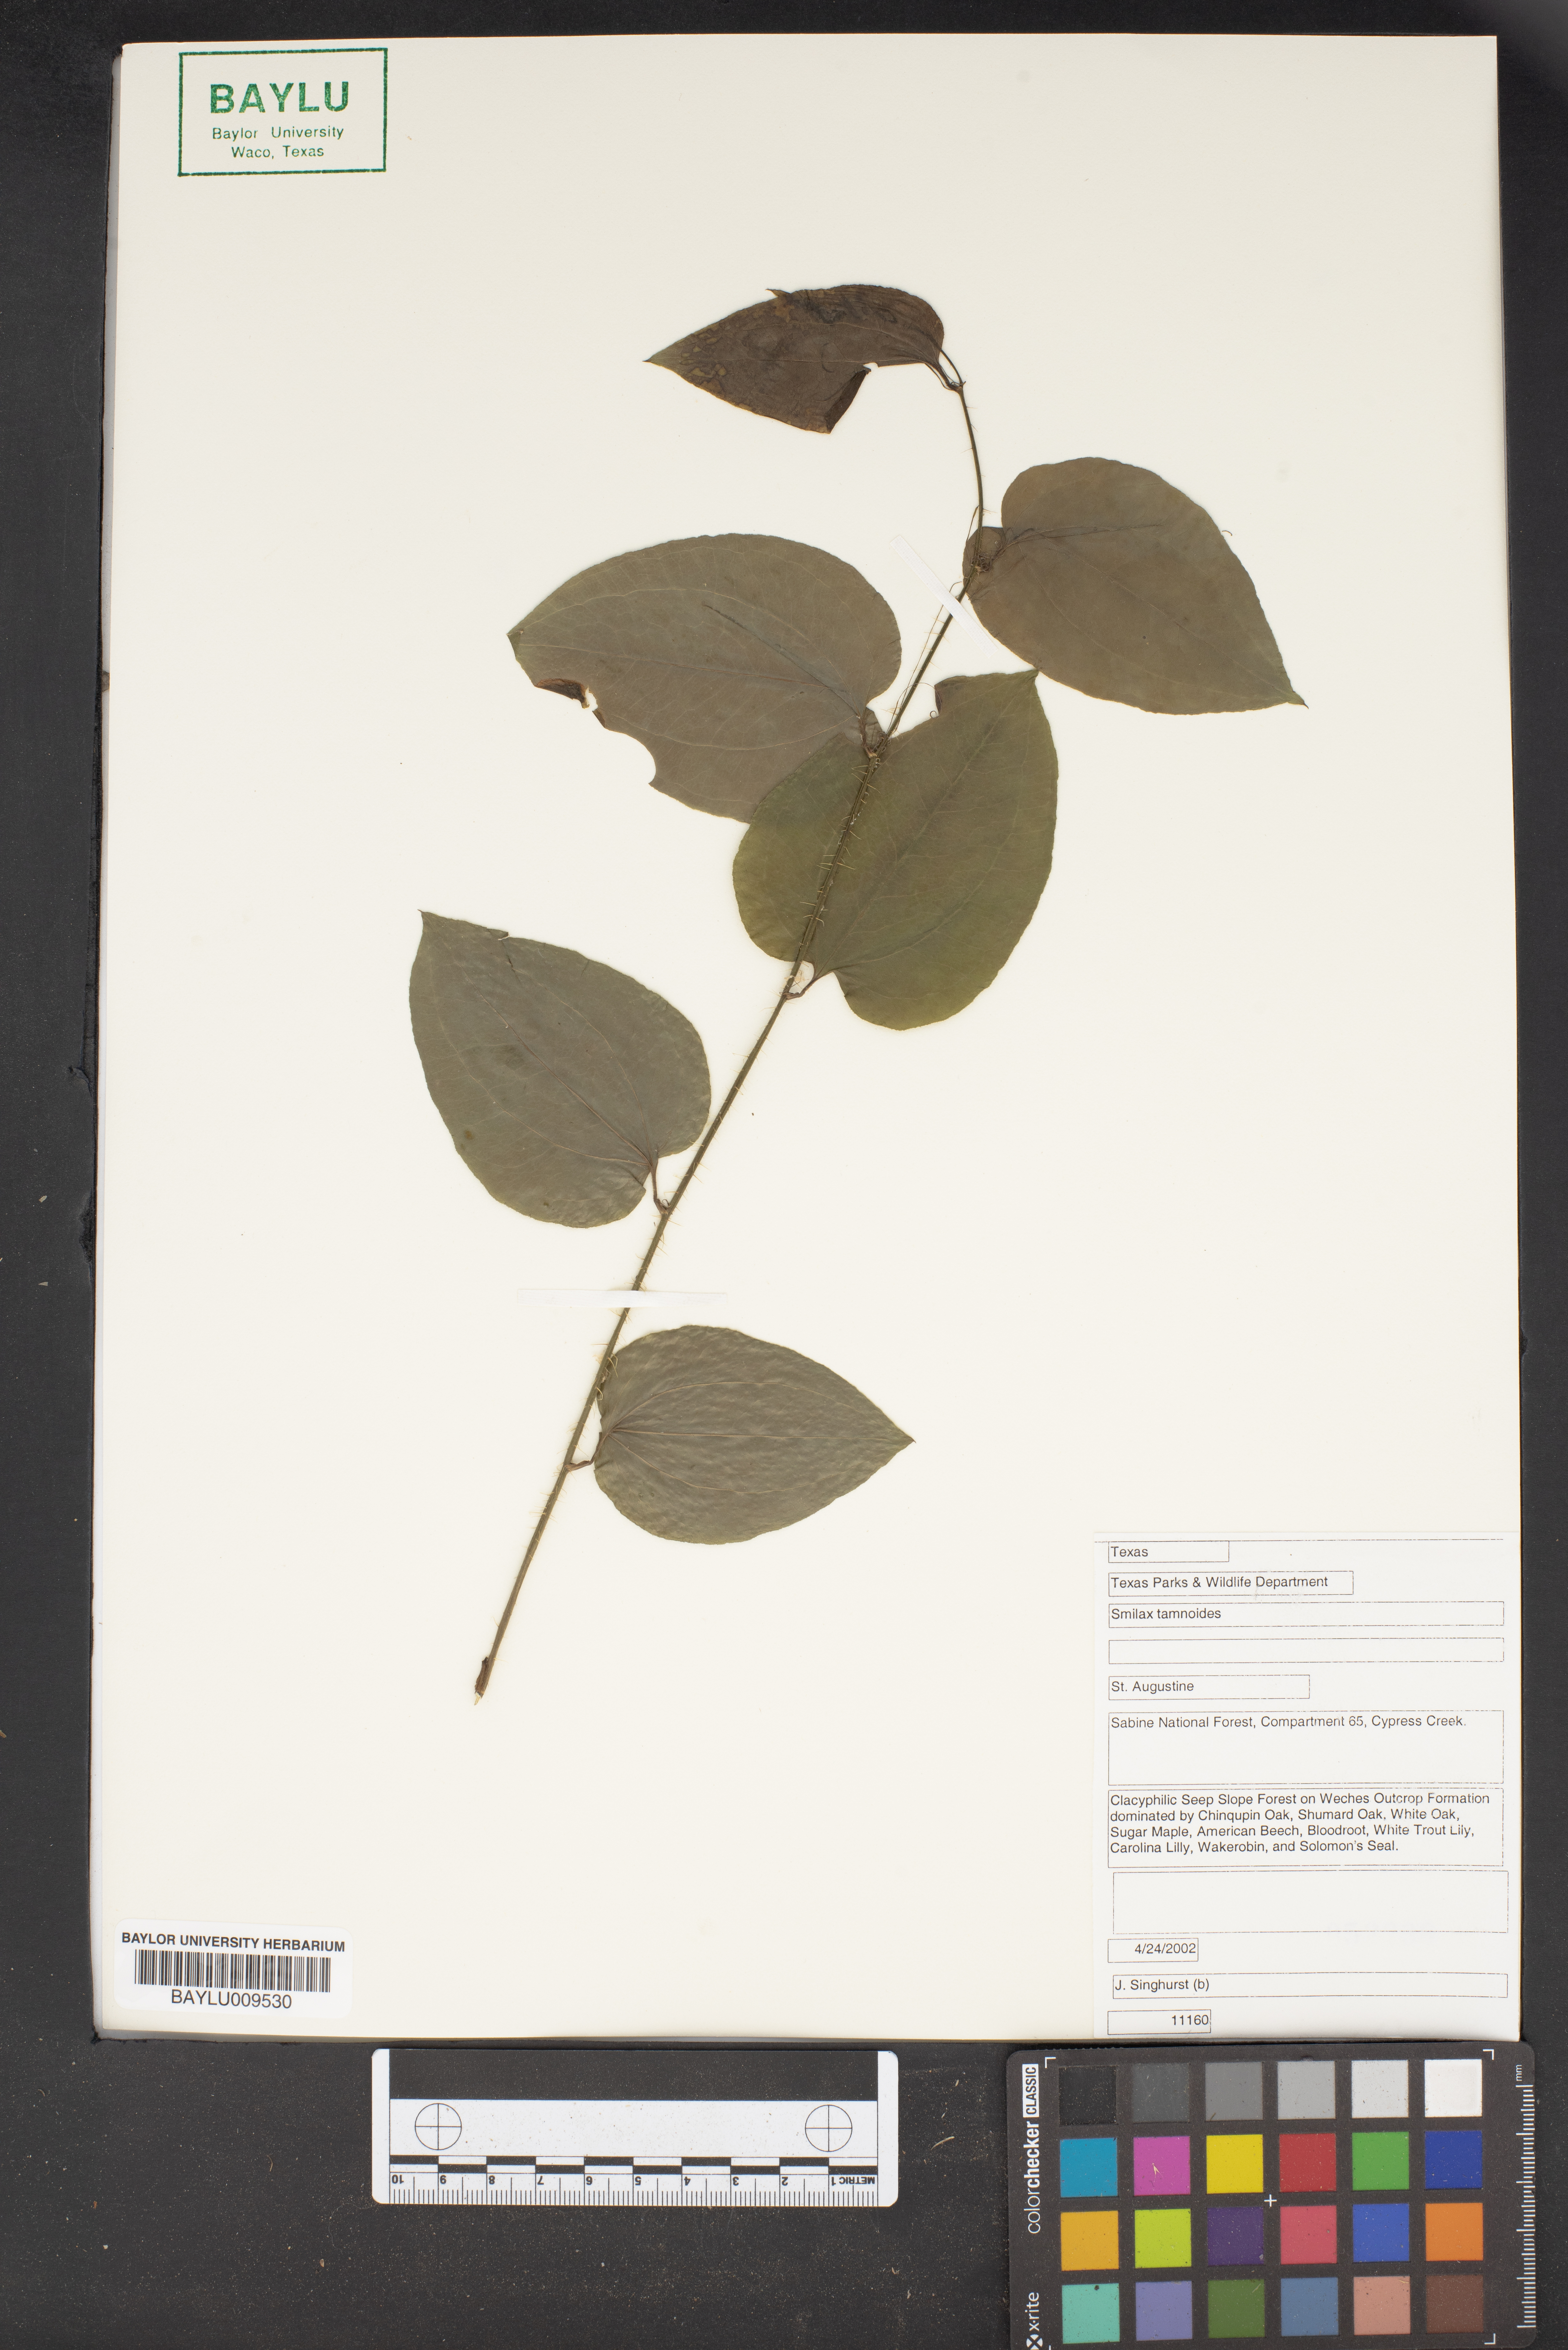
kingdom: Plantae
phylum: Tracheophyta
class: Liliopsida
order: Liliales
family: Smilacaceae
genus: Smilax
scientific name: Smilax tamnoides
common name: Hellfetter
